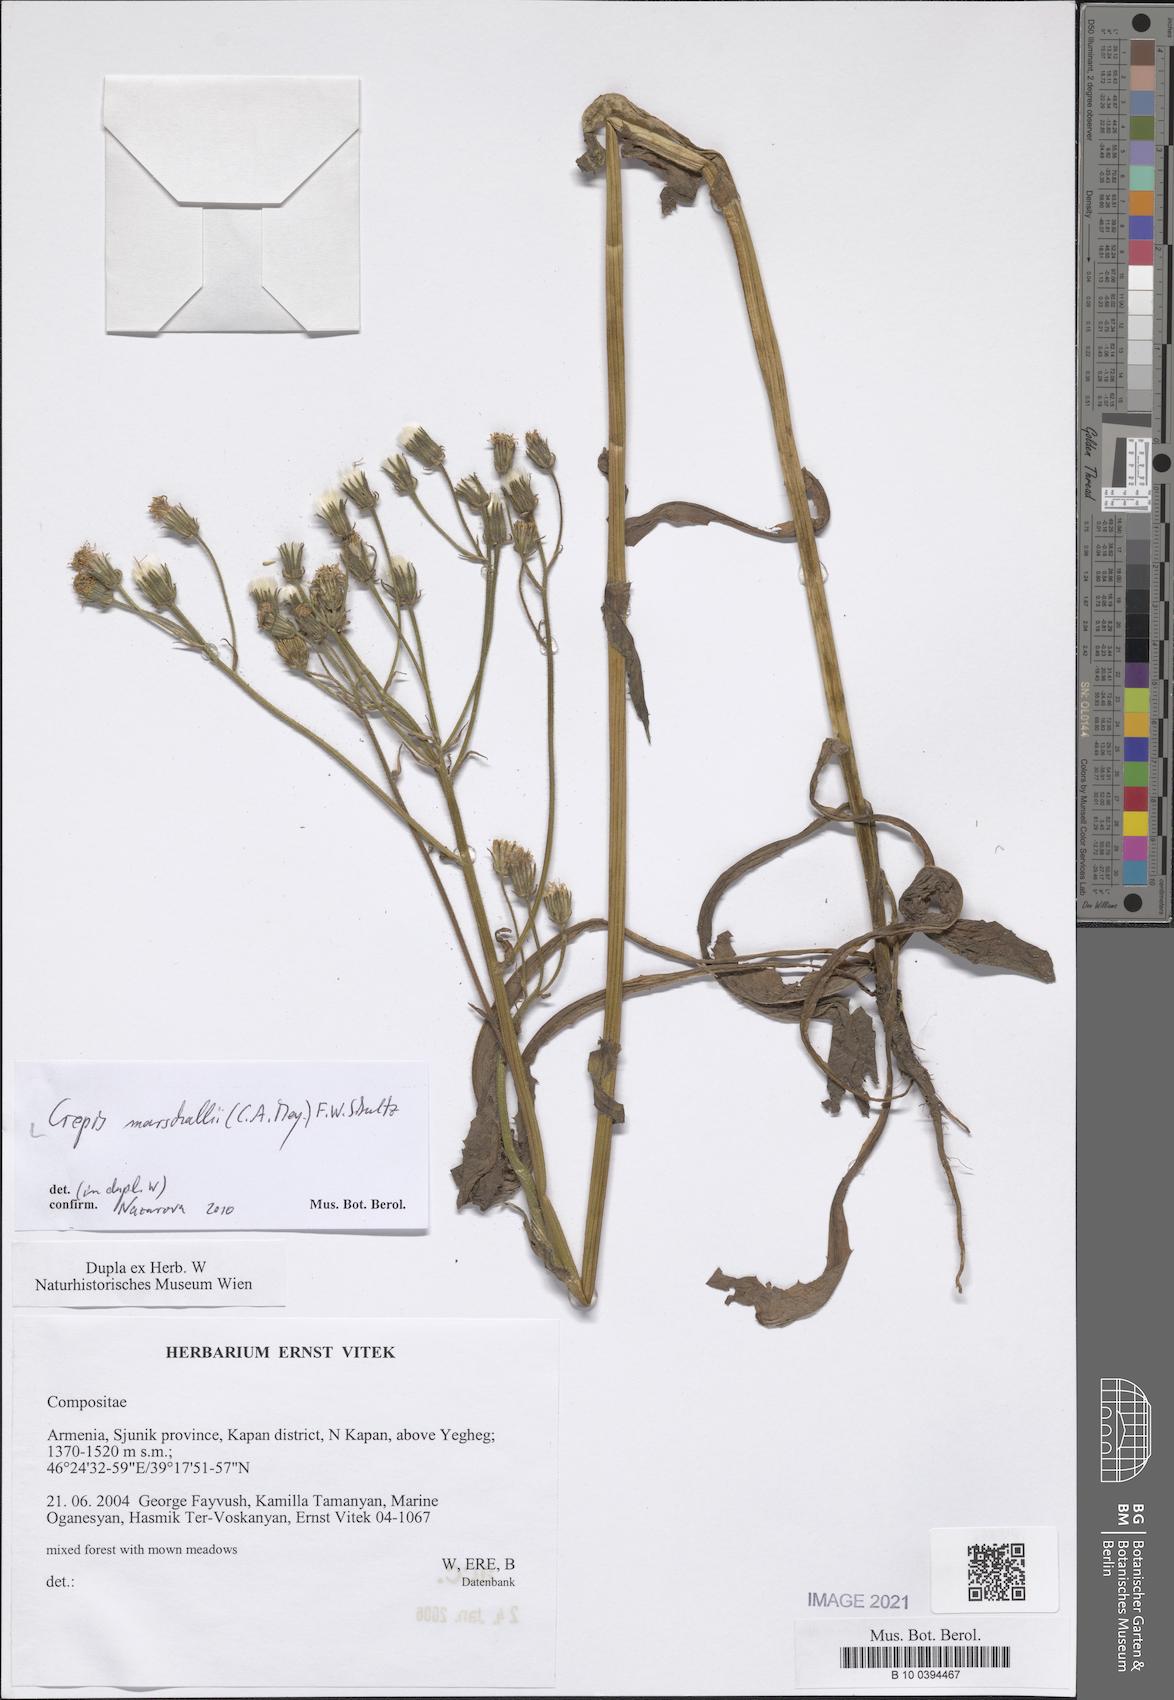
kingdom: Plantae
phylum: Tracheophyta
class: Magnoliopsida
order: Asterales
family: Asteraceae
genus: Crepis
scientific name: Crepis marschallii
